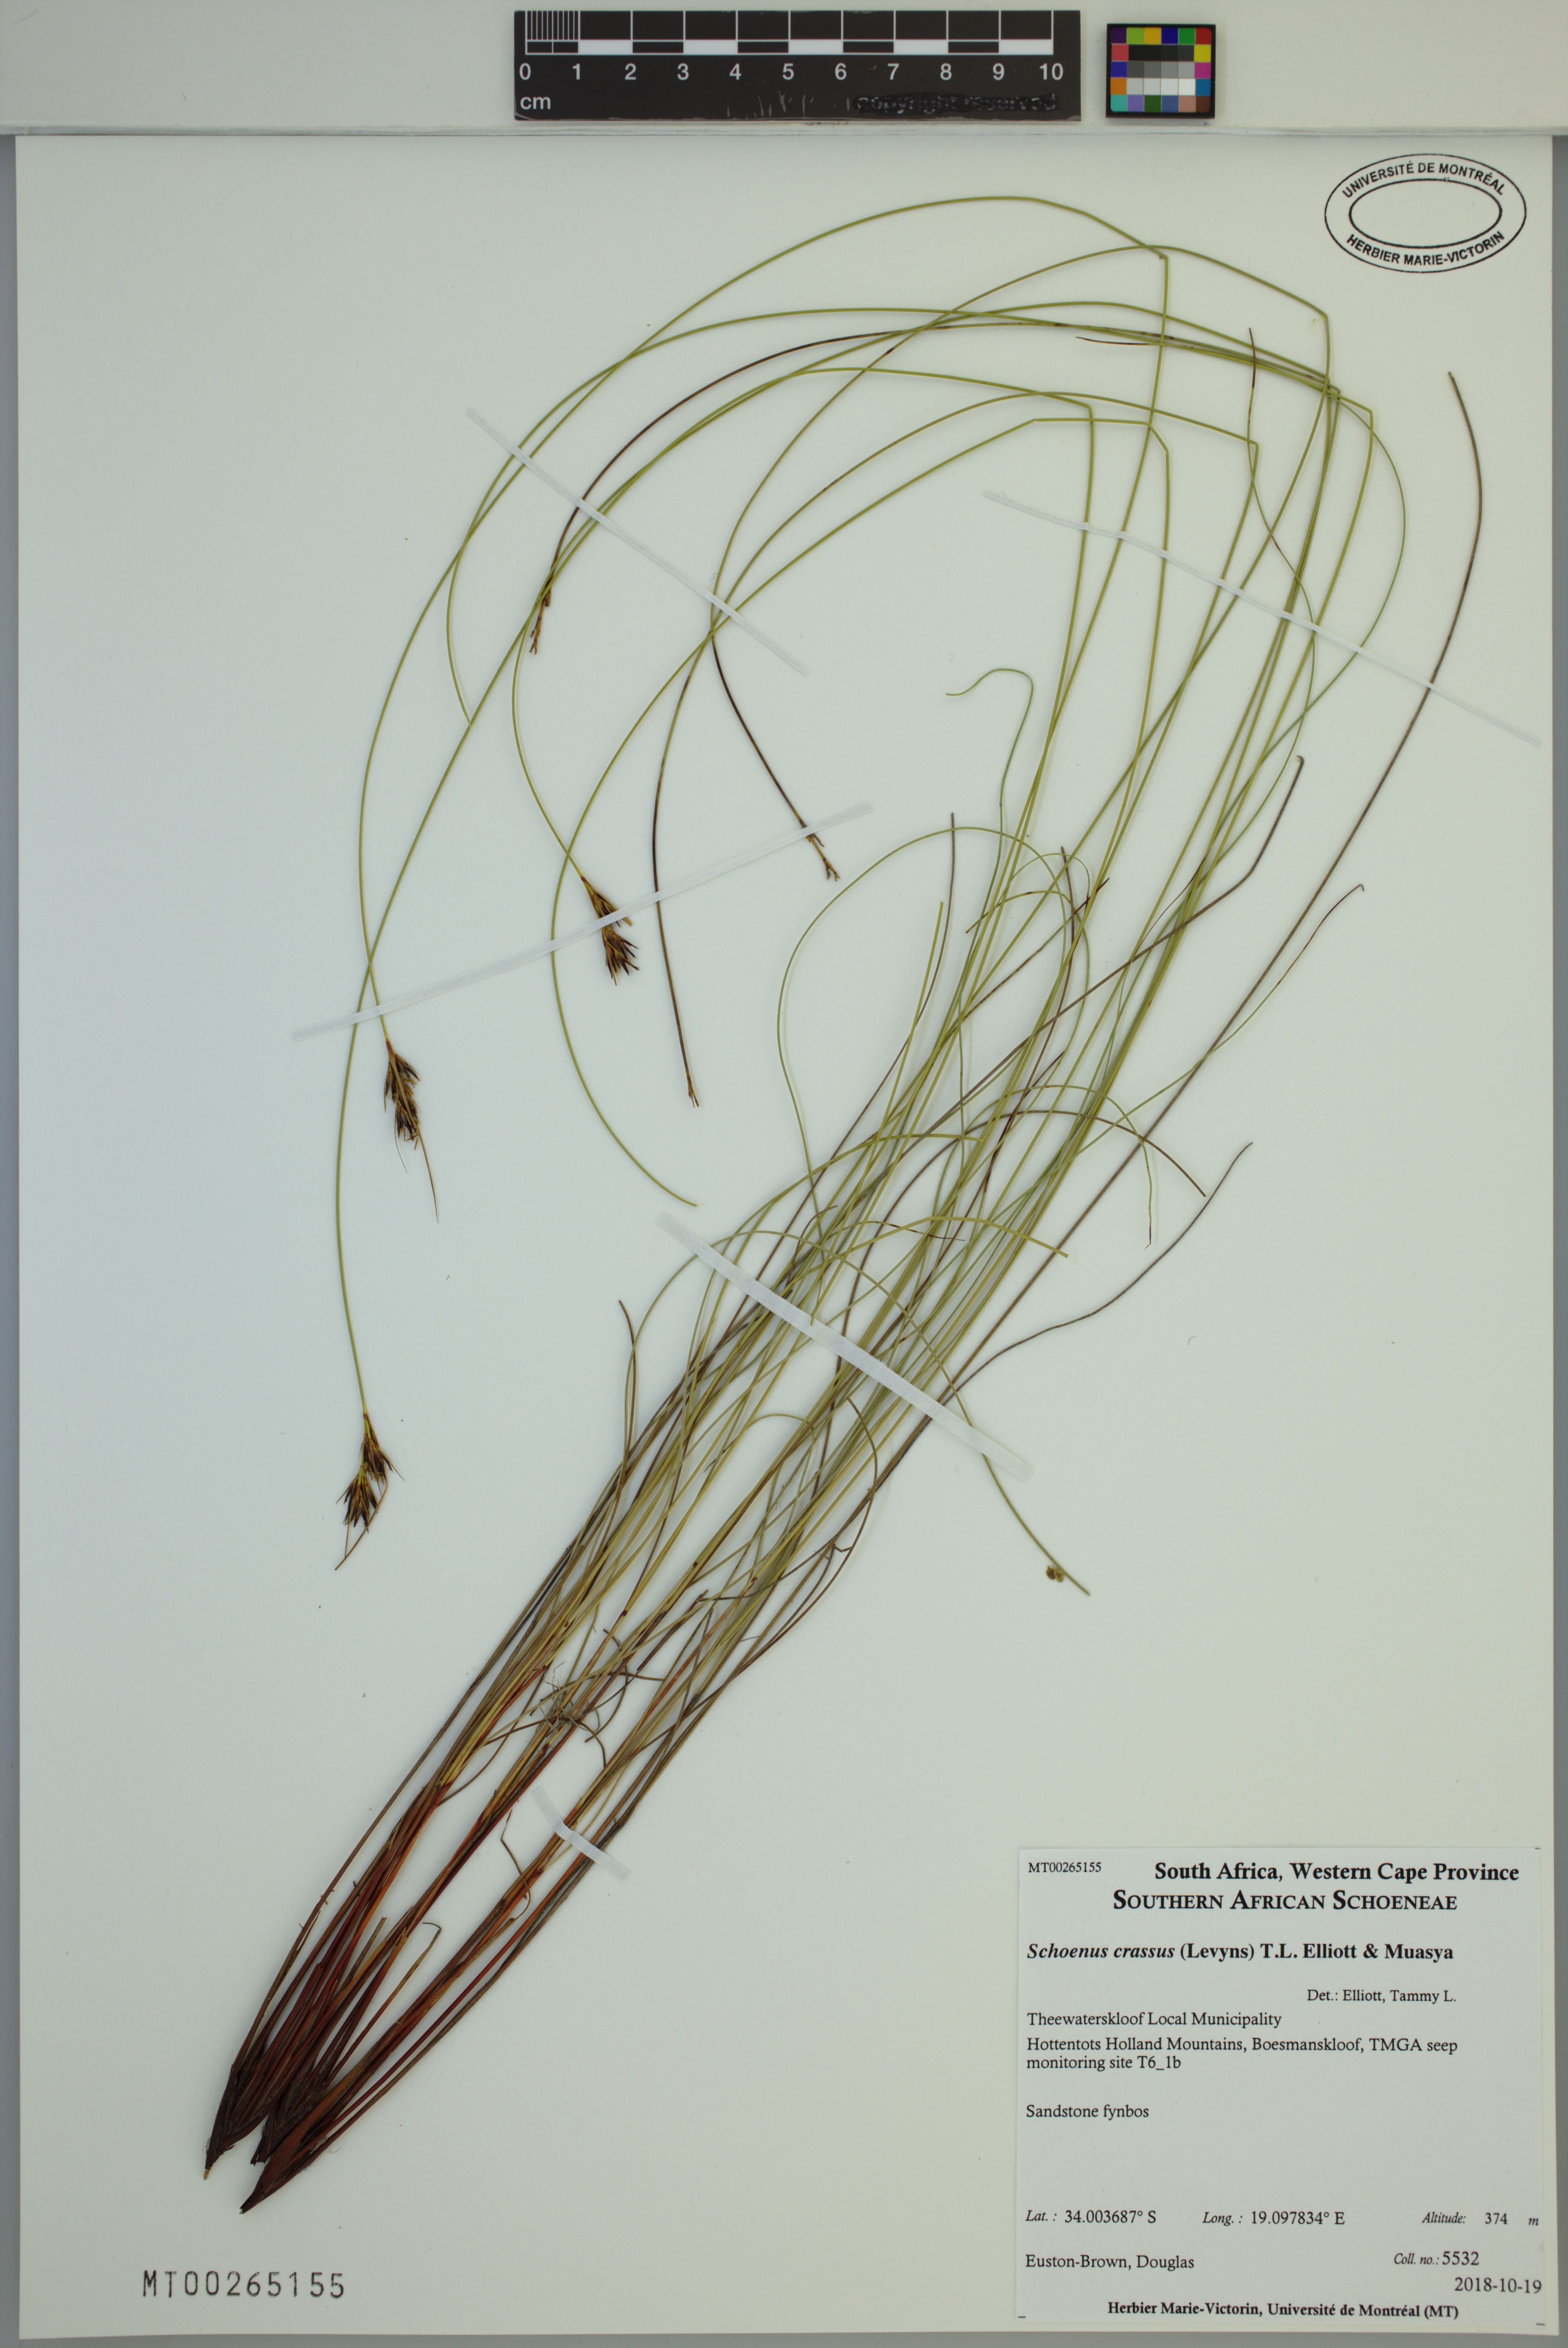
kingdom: Plantae
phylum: Tracheophyta
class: Liliopsida
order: Poales
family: Cyperaceae
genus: Schoenus
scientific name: Schoenus crassus
